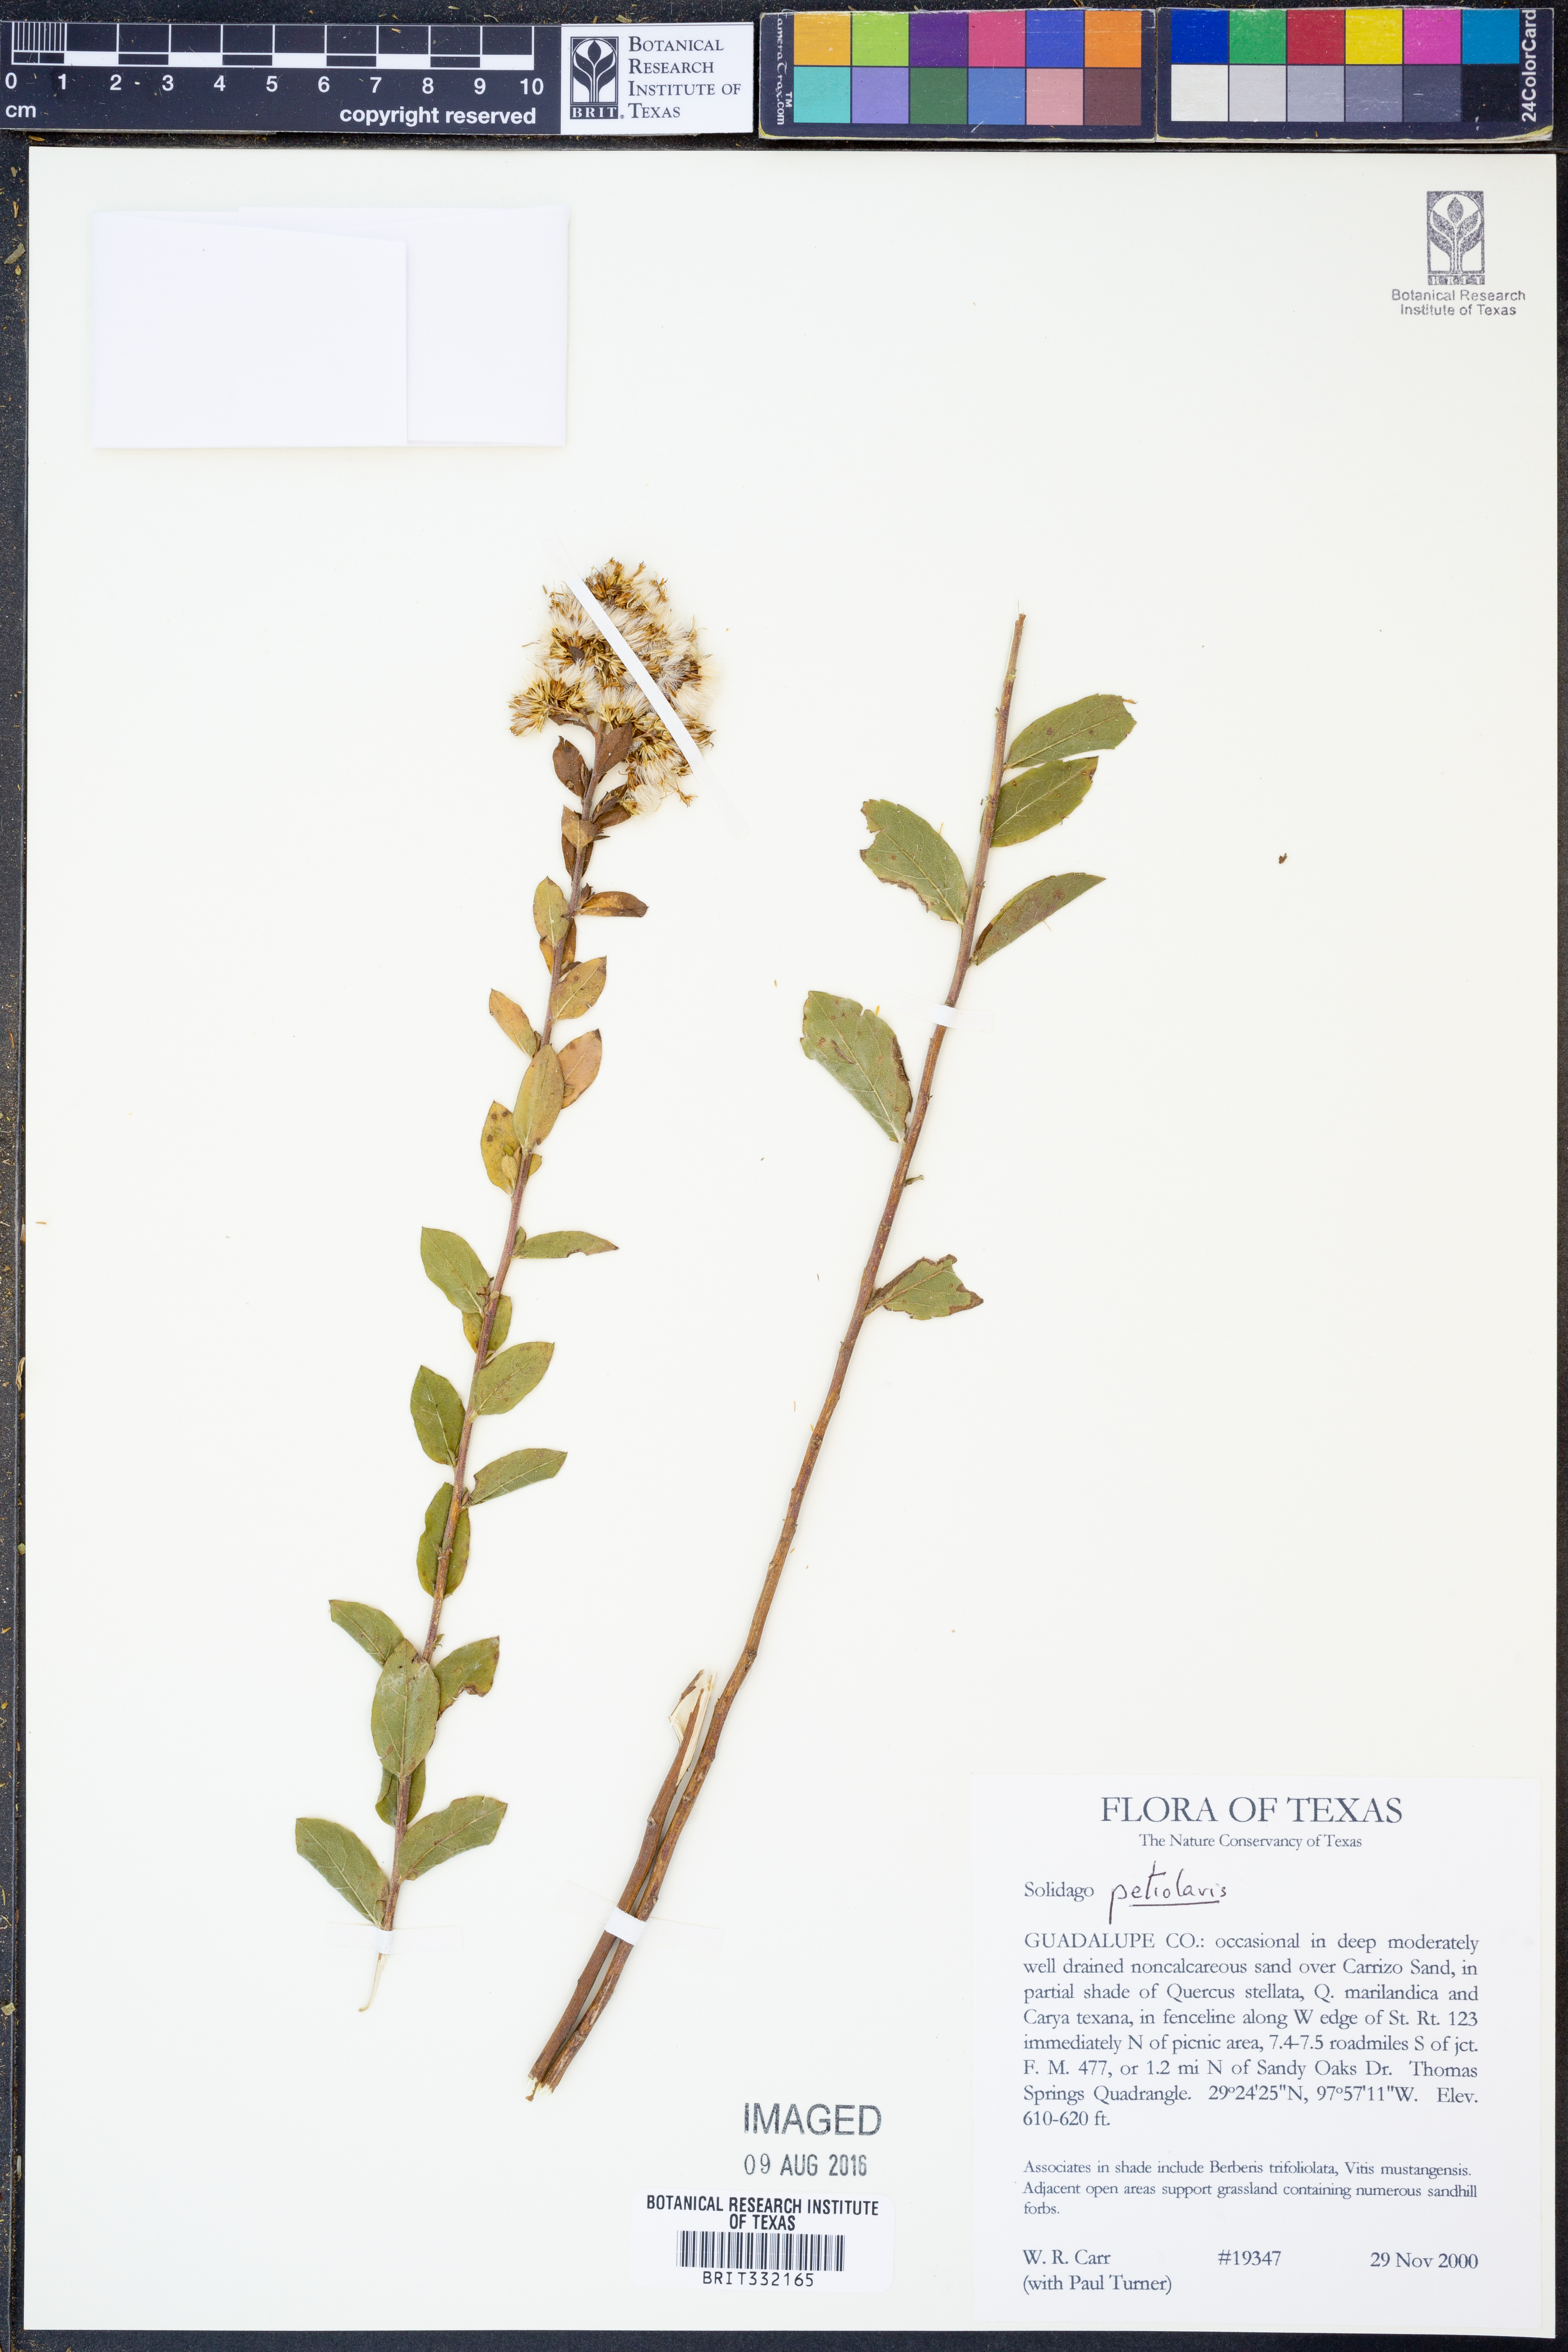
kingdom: Plantae
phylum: Tracheophyta
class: Magnoliopsida
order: Asterales
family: Asteraceae
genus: Solidago
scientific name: Solidago petiolaris
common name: Downy ragged goldenrod
